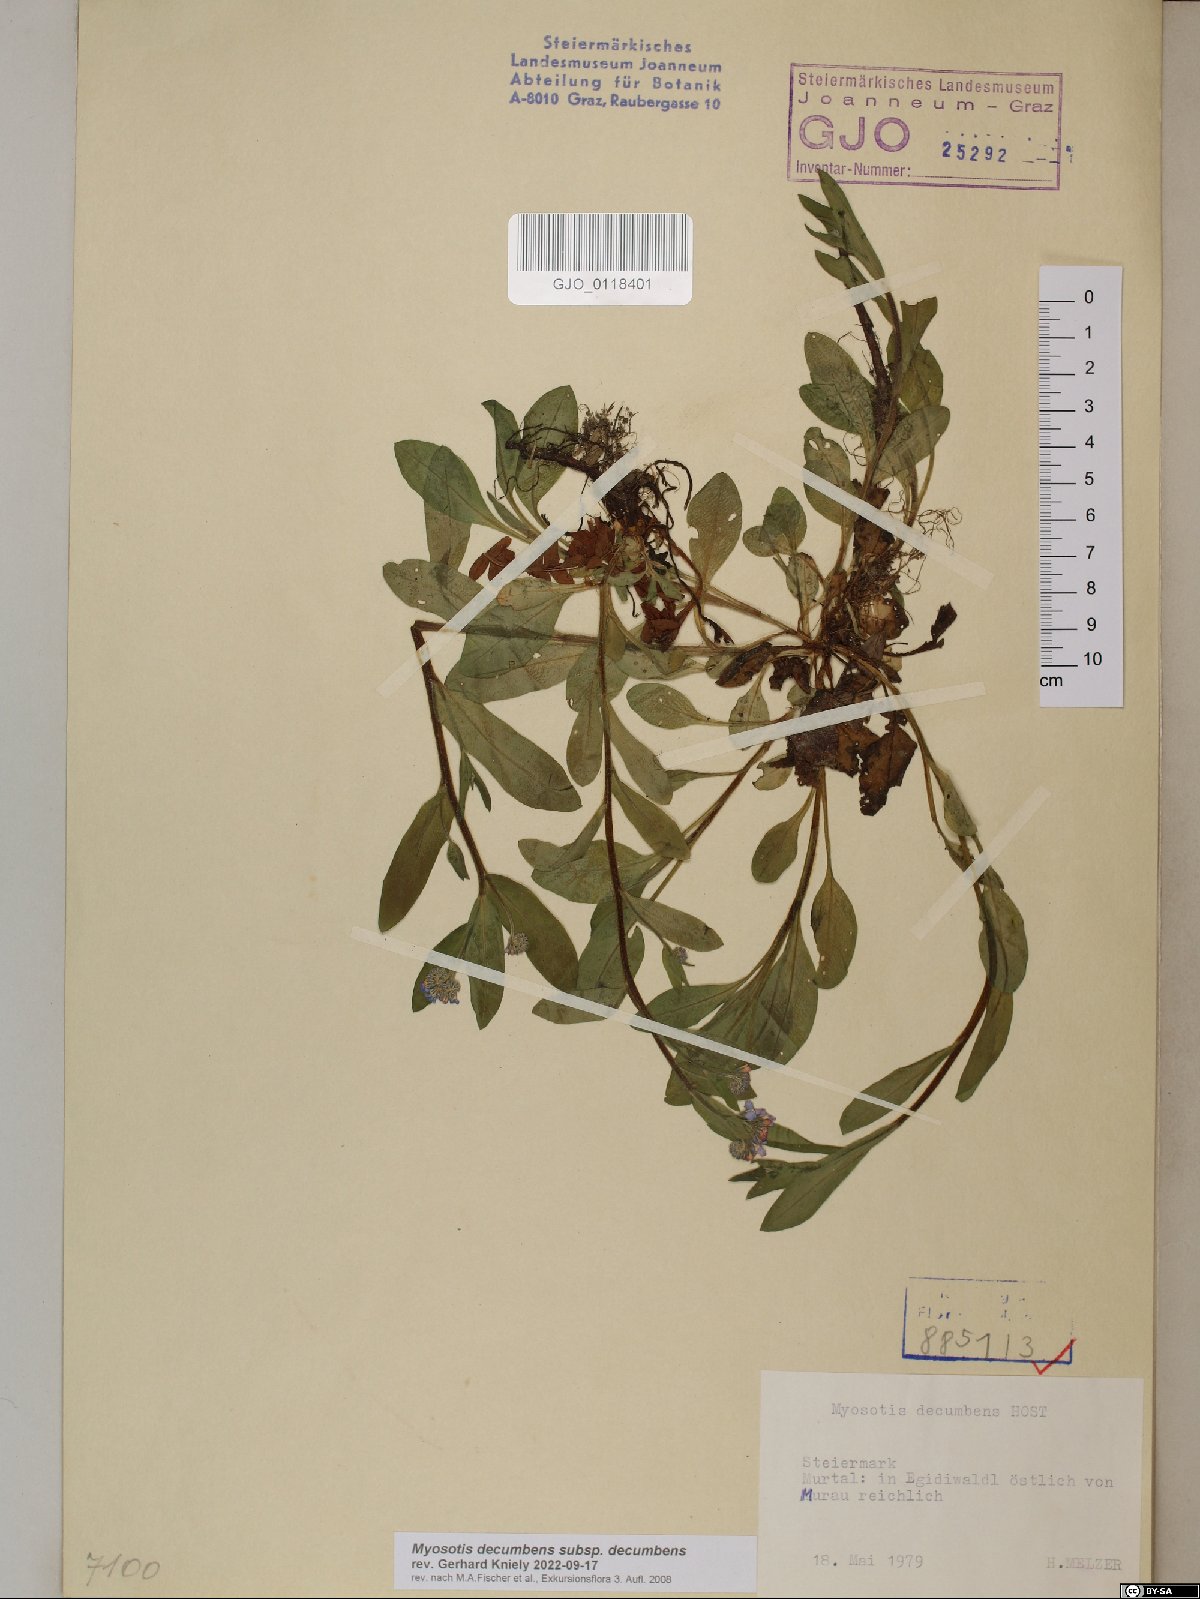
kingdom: Plantae
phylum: Tracheophyta
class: Magnoliopsida
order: Boraginales
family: Boraginaceae
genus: Myosotis
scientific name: Myosotis decumbens
